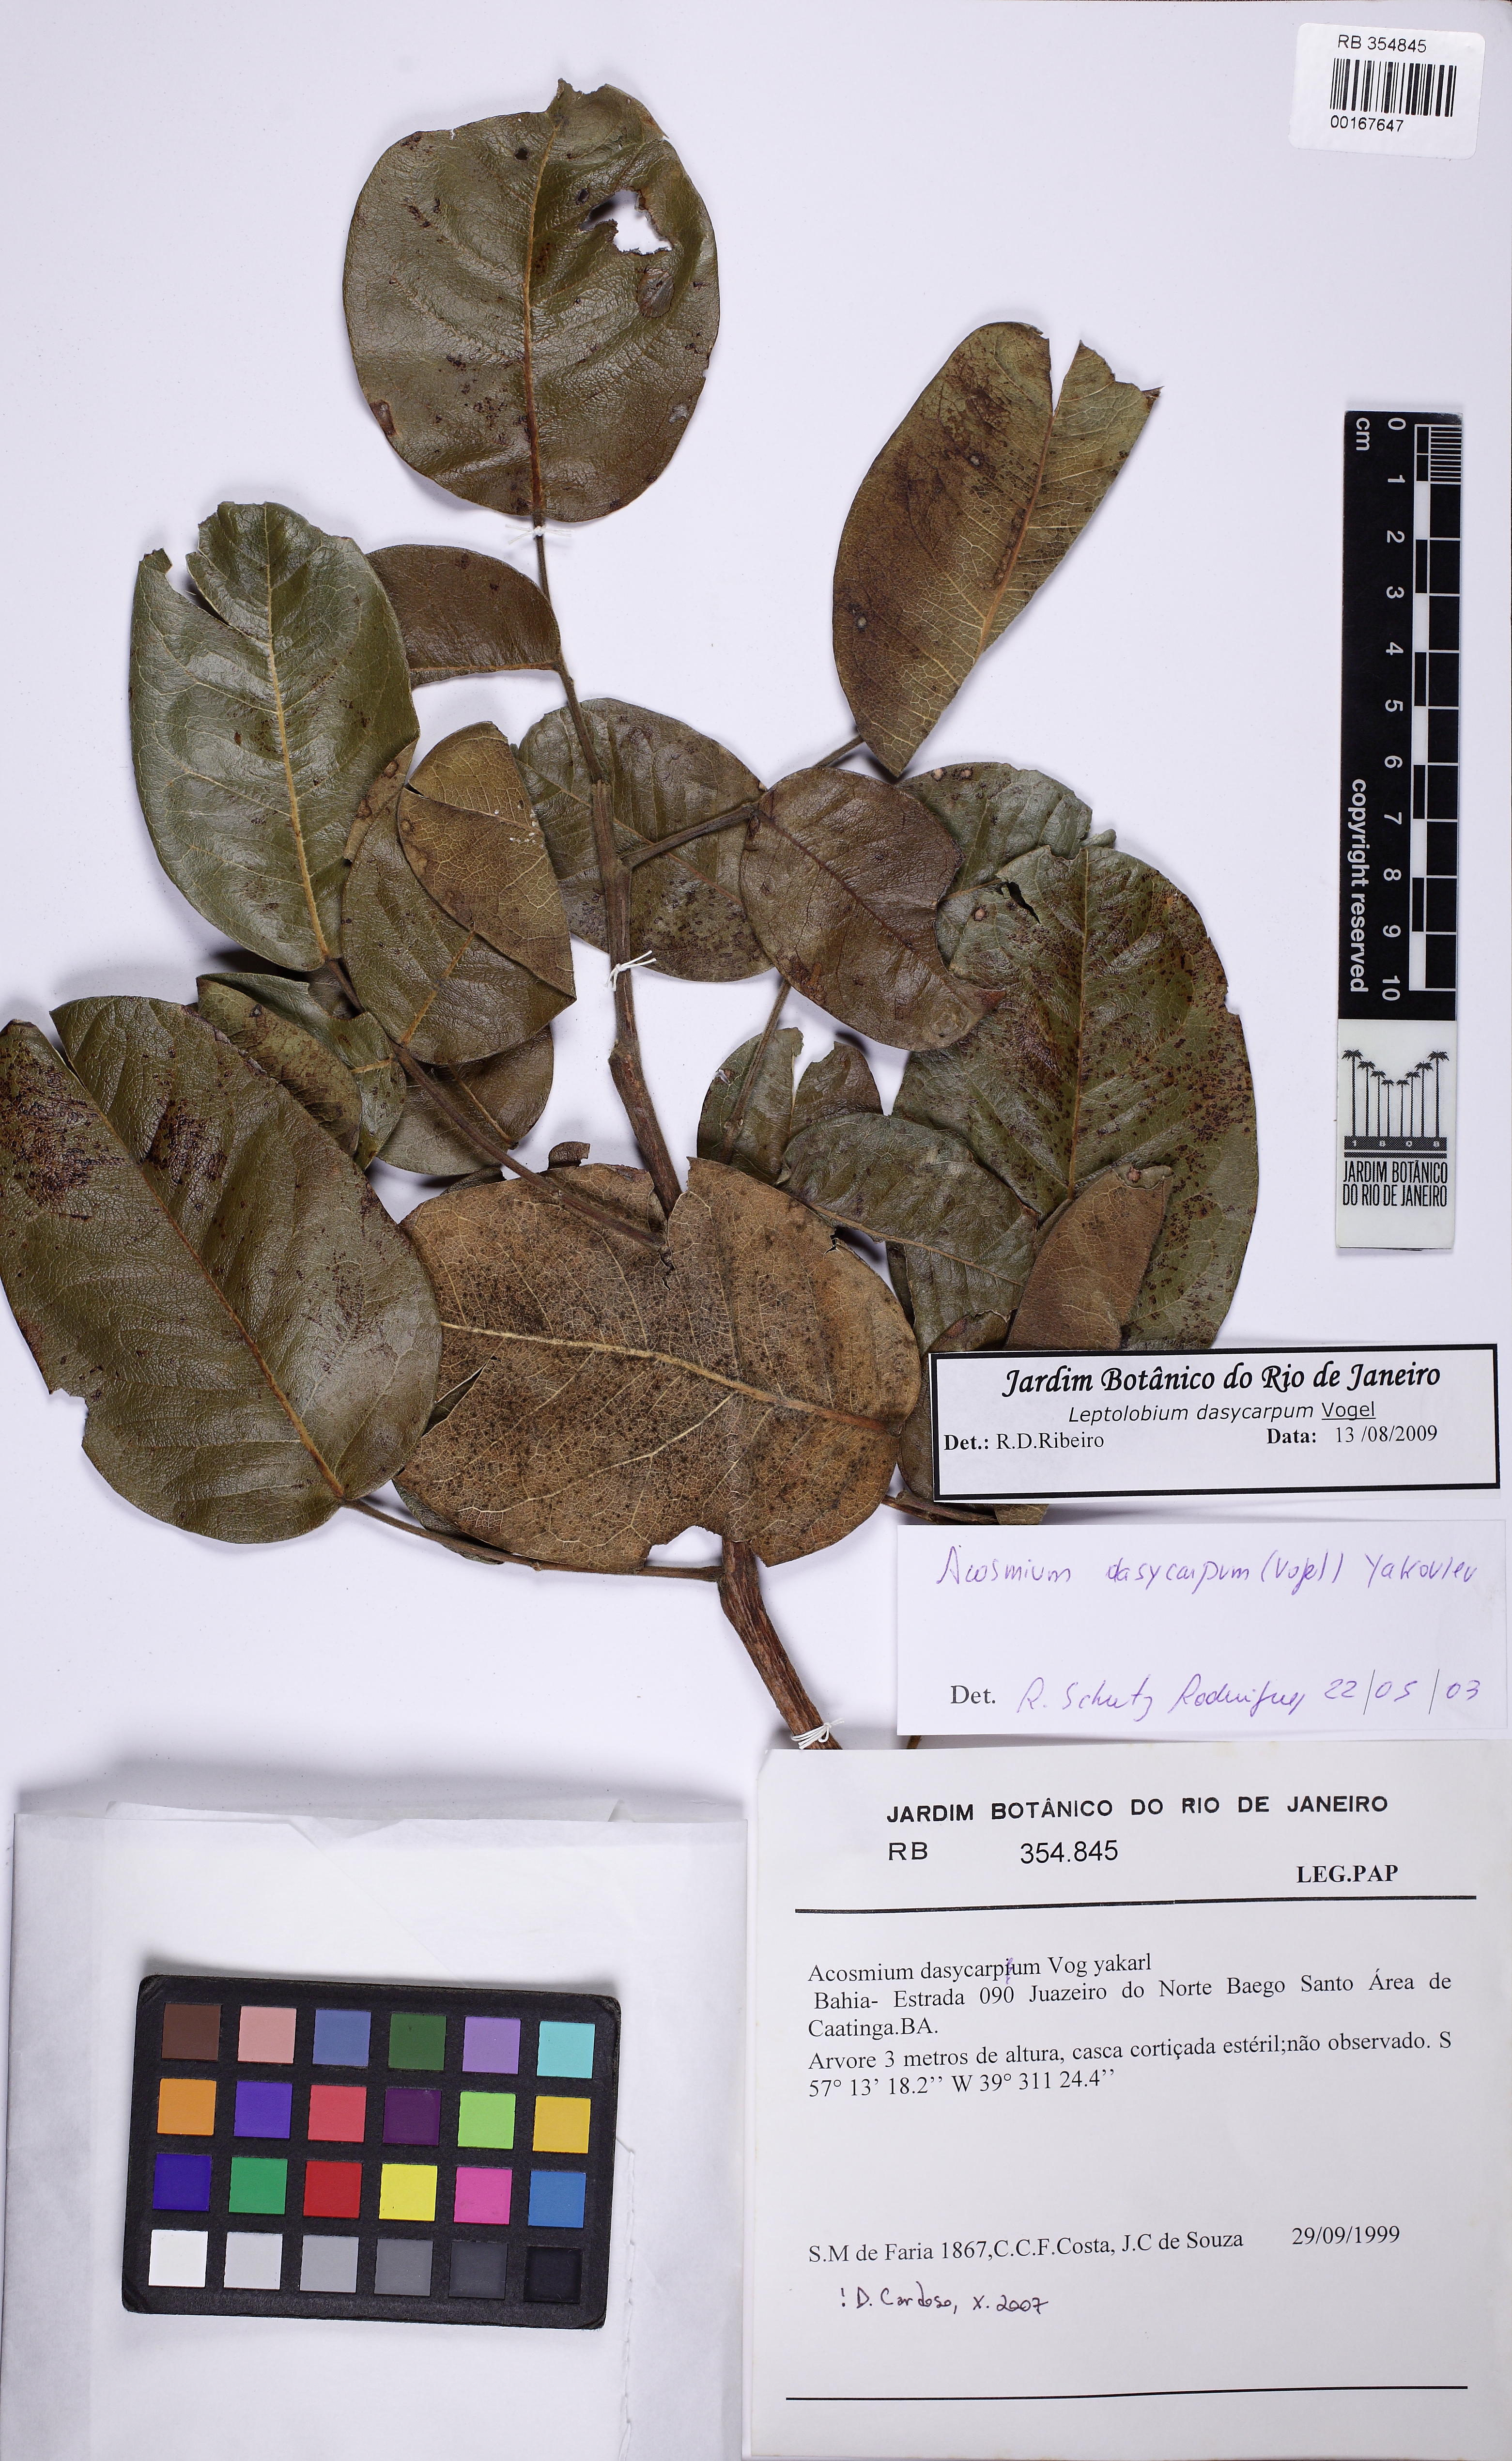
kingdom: Plantae
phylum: Tracheophyta
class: Magnoliopsida
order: Fabales
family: Fabaceae
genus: Leptolobium
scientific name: Leptolobium dasycarpum
